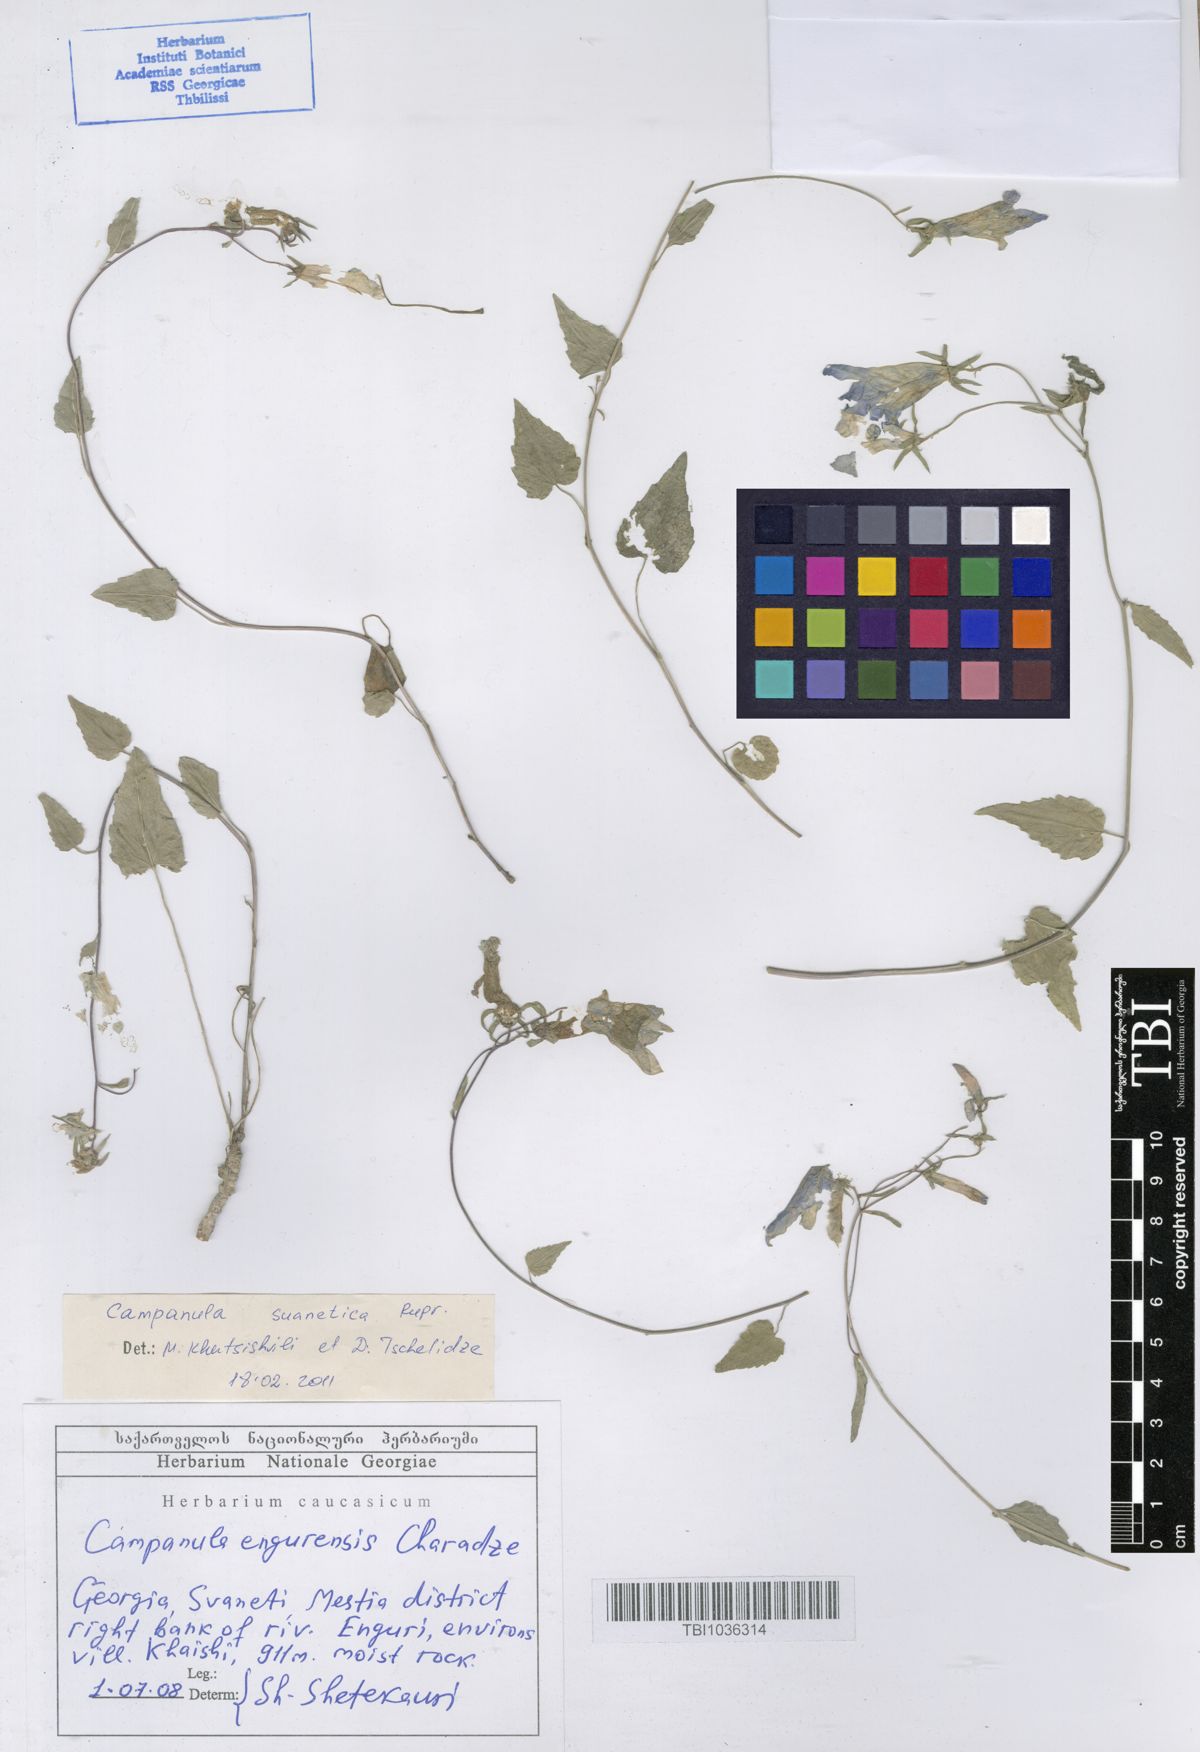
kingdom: Plantae
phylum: Tracheophyta
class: Magnoliopsida
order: Asterales
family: Campanulaceae
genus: Campanula
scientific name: Campanula suanetica
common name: Svanetian bellflower
